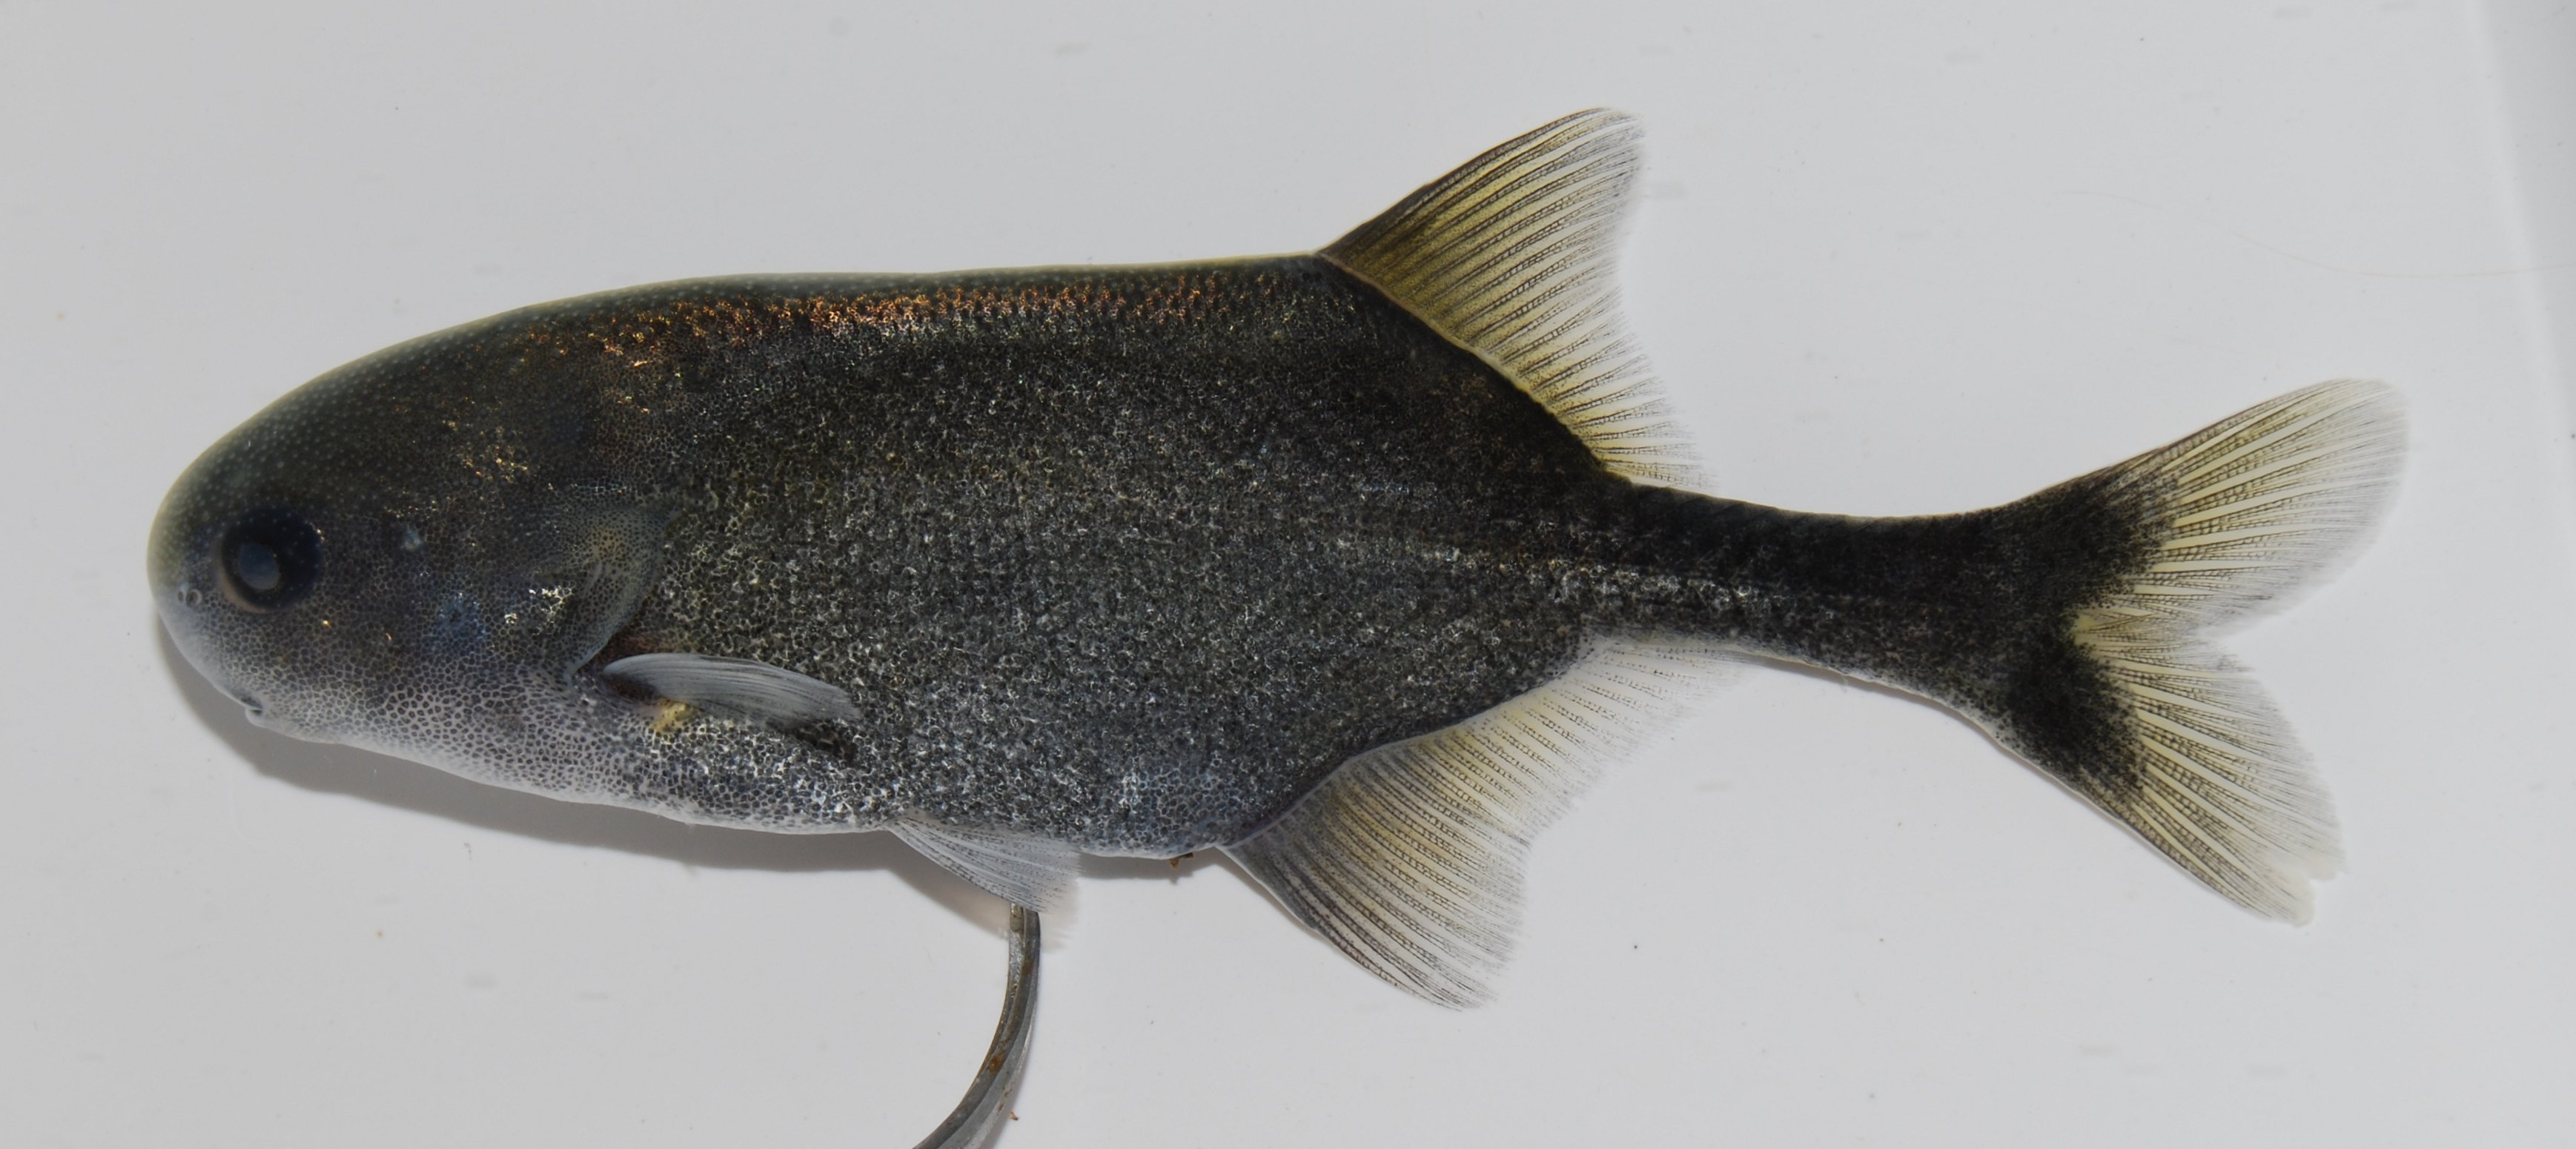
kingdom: Animalia
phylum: Chordata
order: Osteoglossiformes
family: Mormyridae
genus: Petrocephalus
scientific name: Petrocephalus catostoma
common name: Churchill
